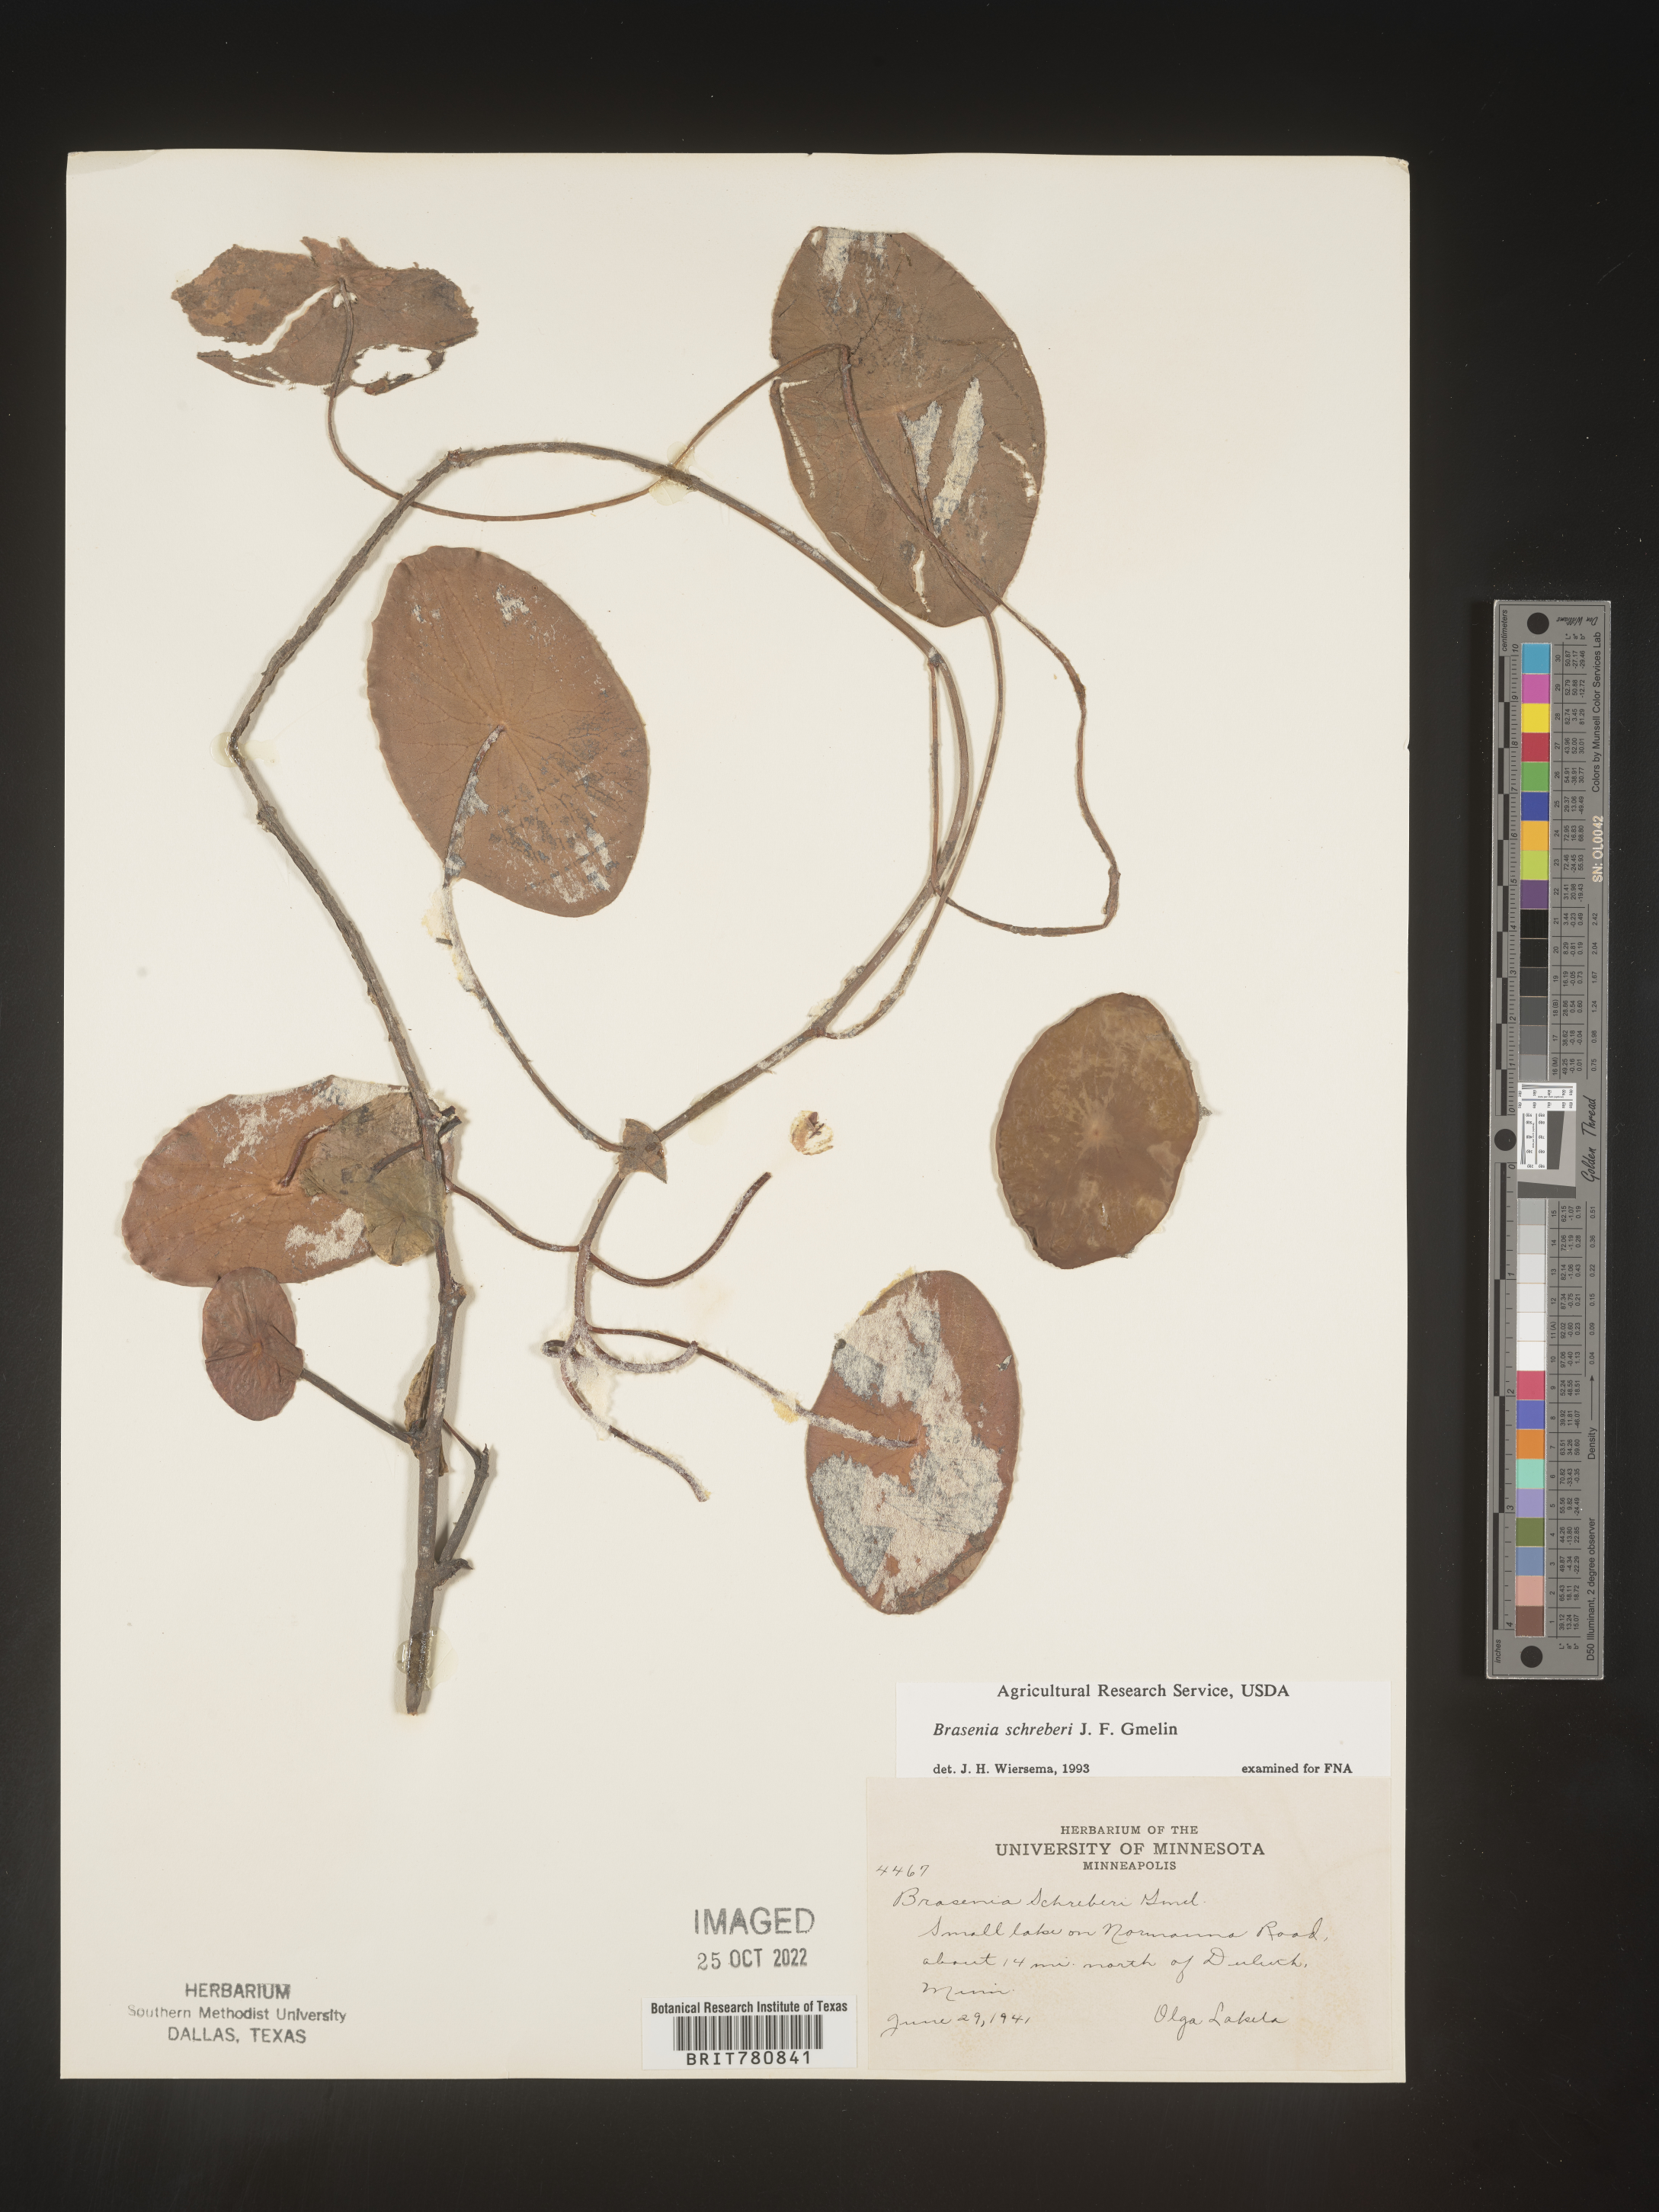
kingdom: Plantae
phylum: Tracheophyta
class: Magnoliopsida
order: Nymphaeales
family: Cabombaceae
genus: Brasenia
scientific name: Brasenia schreberi
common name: Water-shield
